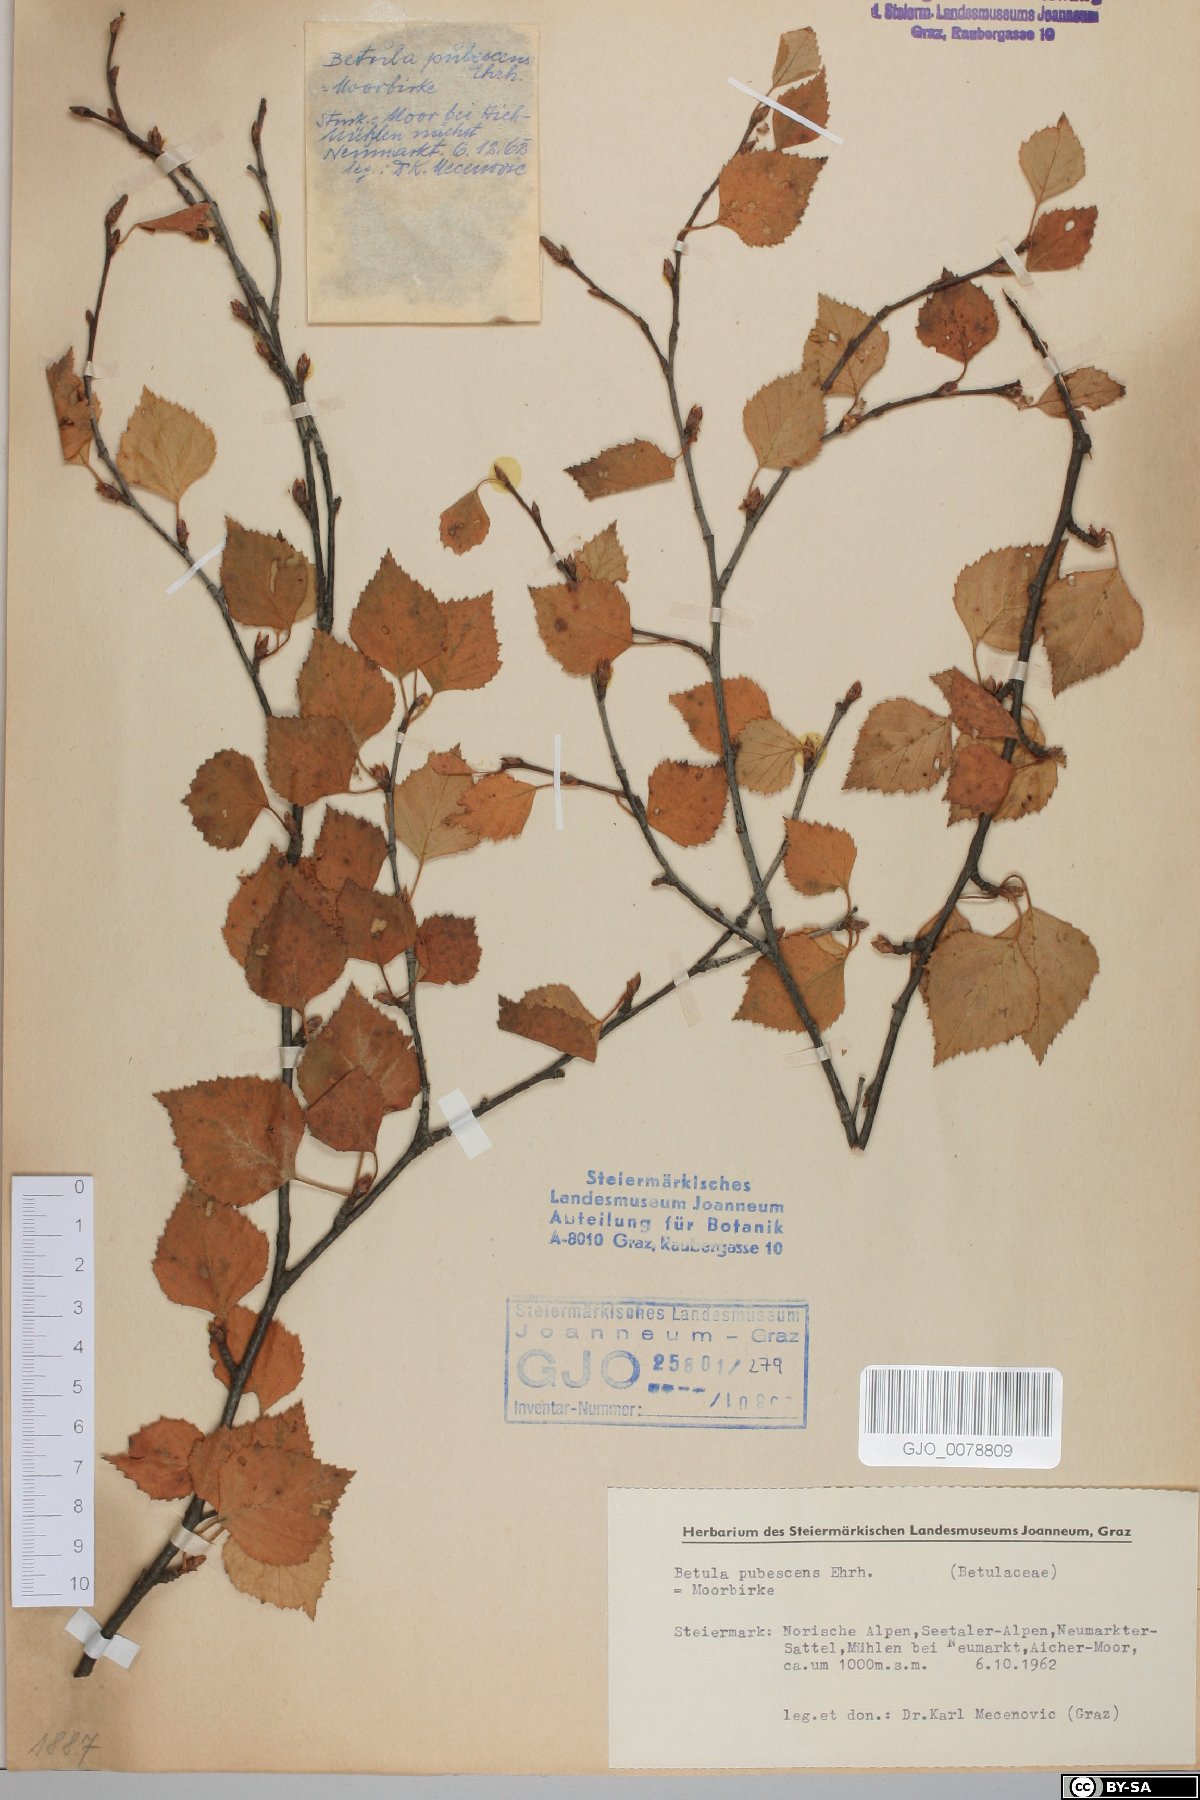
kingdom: Plantae
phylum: Tracheophyta
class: Magnoliopsida
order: Fagales
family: Betulaceae
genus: Betula
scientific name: Betula pubescens
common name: Downy birch
